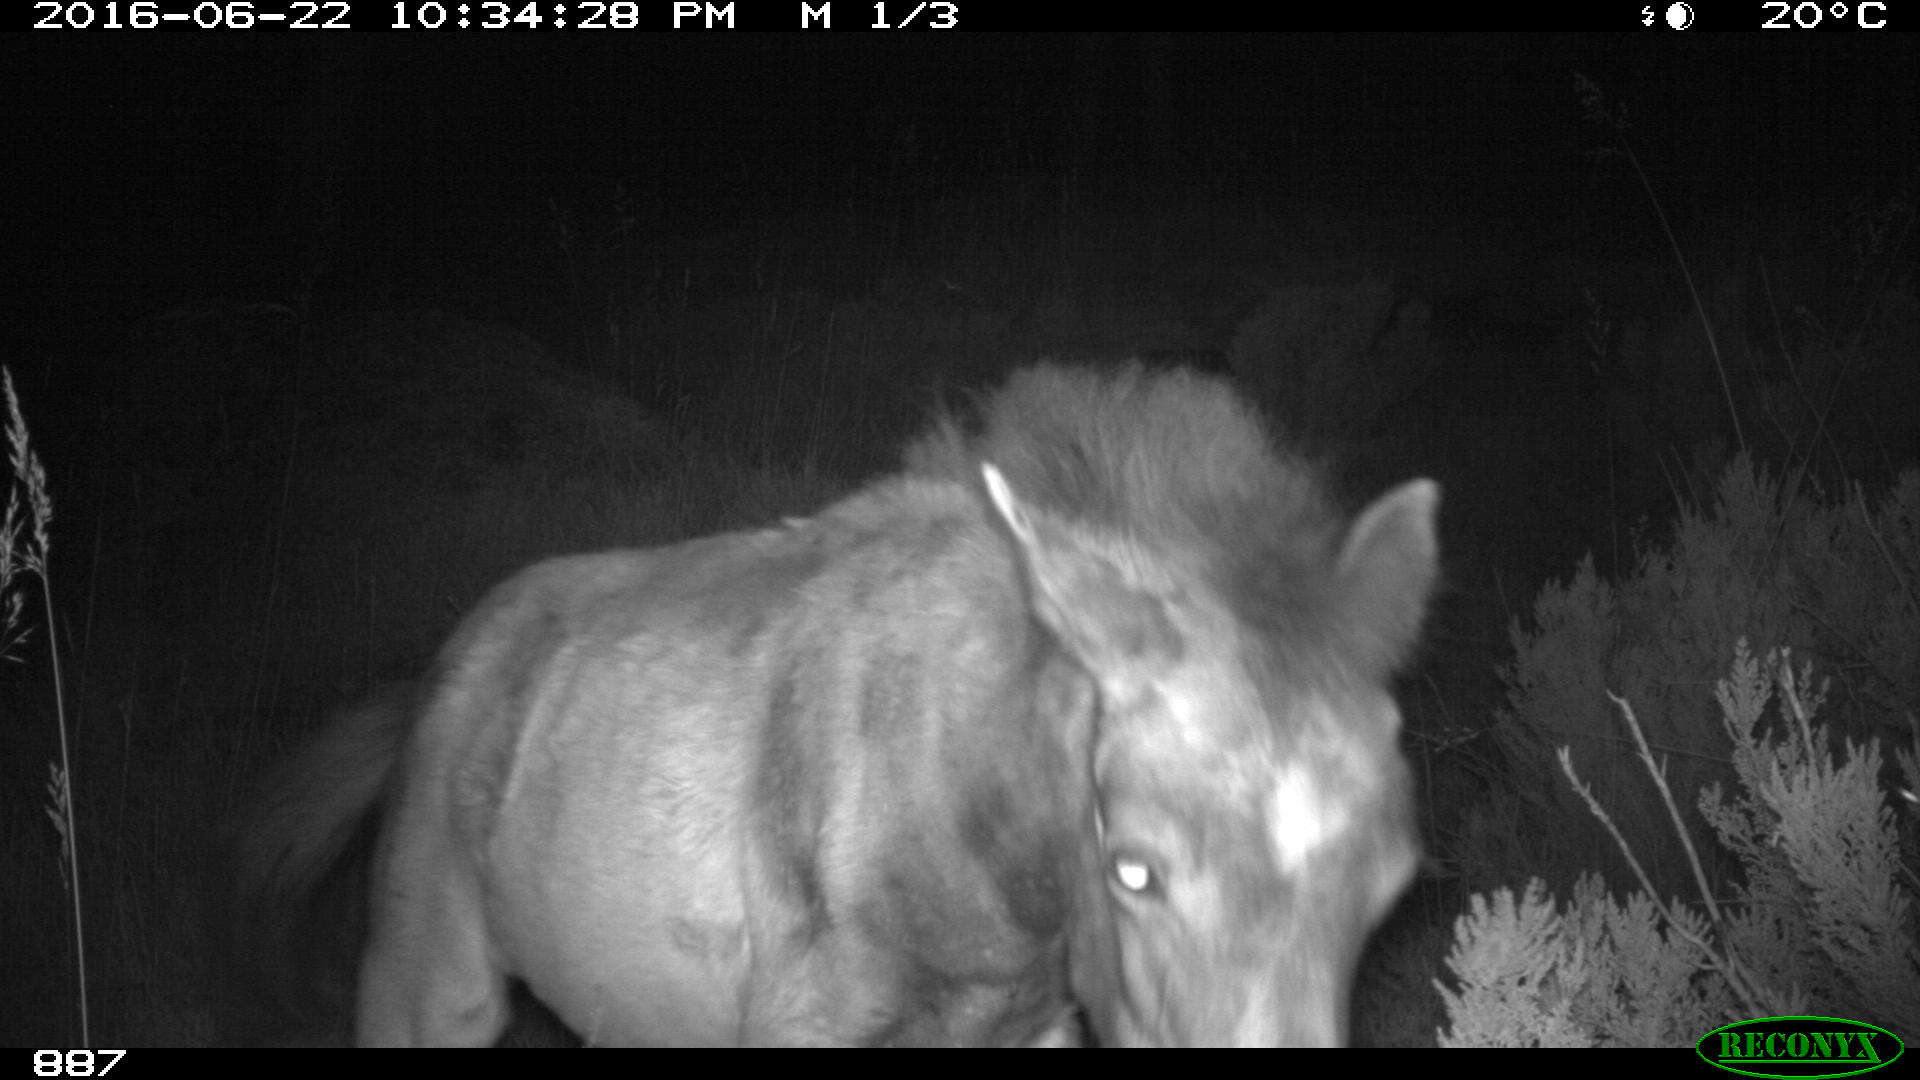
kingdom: Animalia
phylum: Chordata
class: Mammalia
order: Perissodactyla
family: Equidae
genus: Equus
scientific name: Equus caballus
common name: Horse
